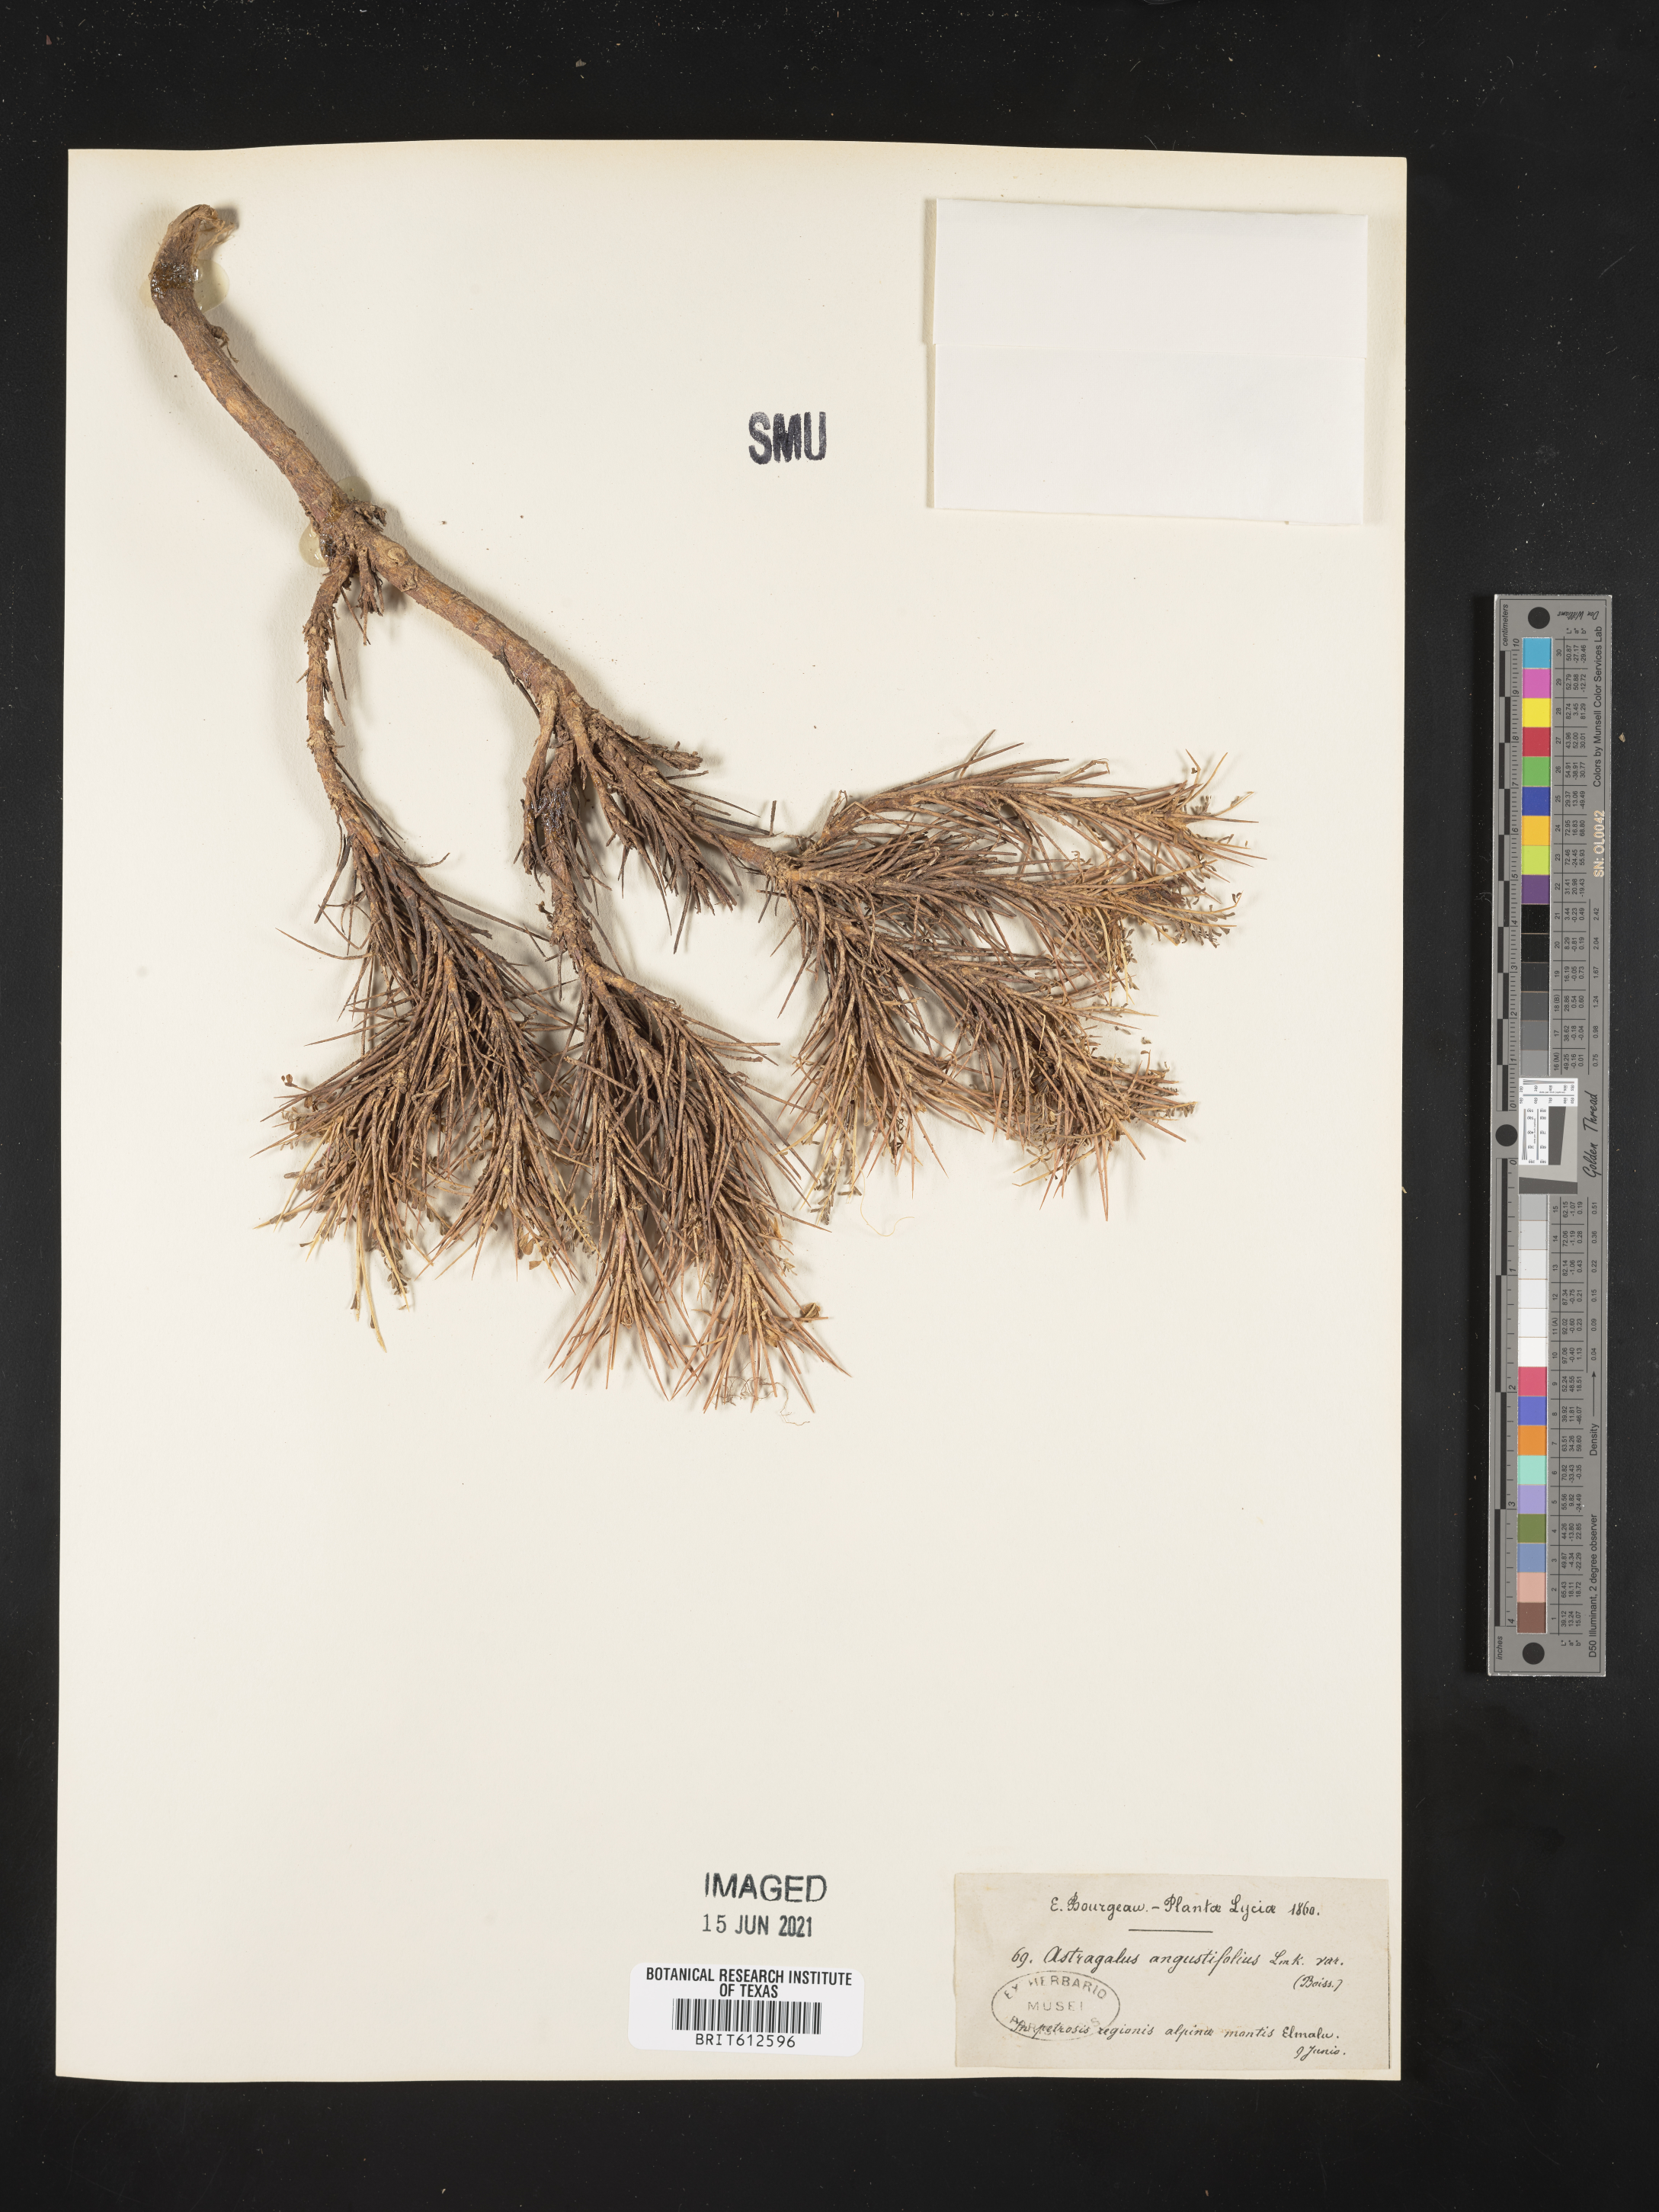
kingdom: Plantae
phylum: Tracheophyta
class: Magnoliopsida
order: Fabales
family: Fabaceae
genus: Astragalus
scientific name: Astragalus angustifolius
